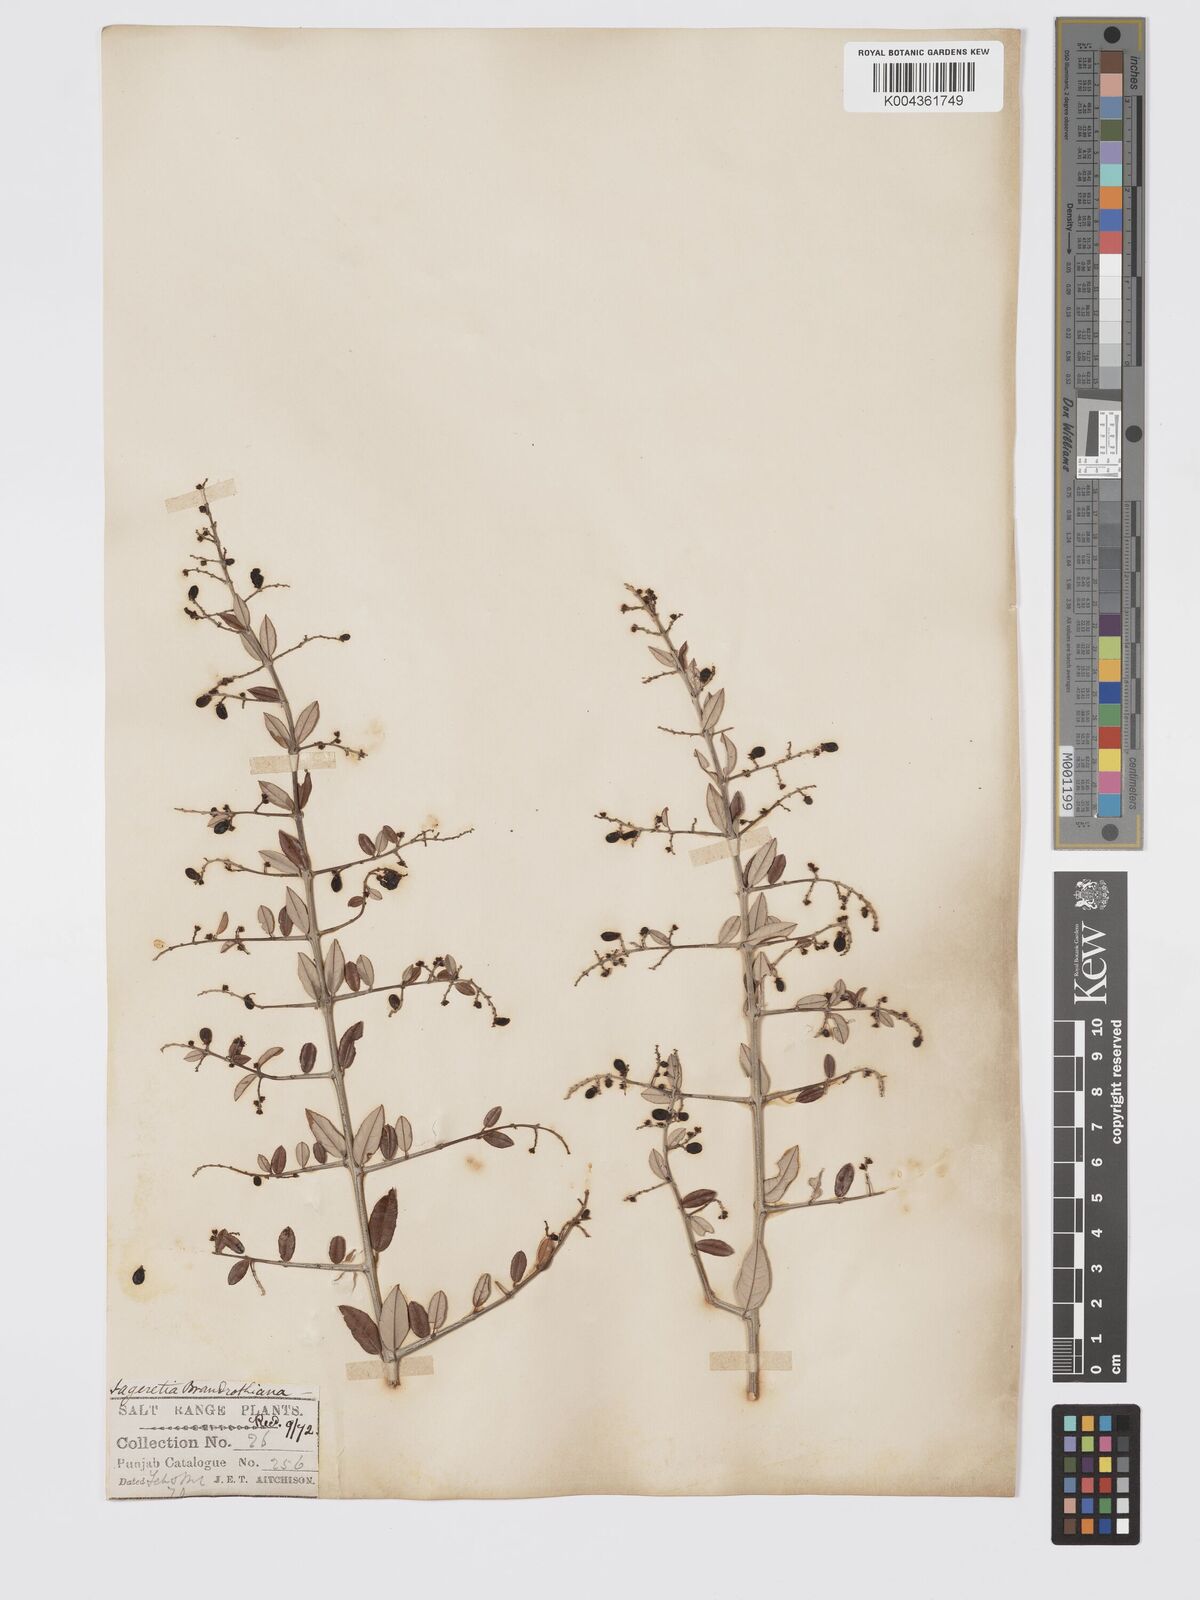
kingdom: Plantae
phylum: Tracheophyta
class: Magnoliopsida
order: Rosales
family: Rhamnaceae
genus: Sageretia
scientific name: Sageretia brandrethiana
